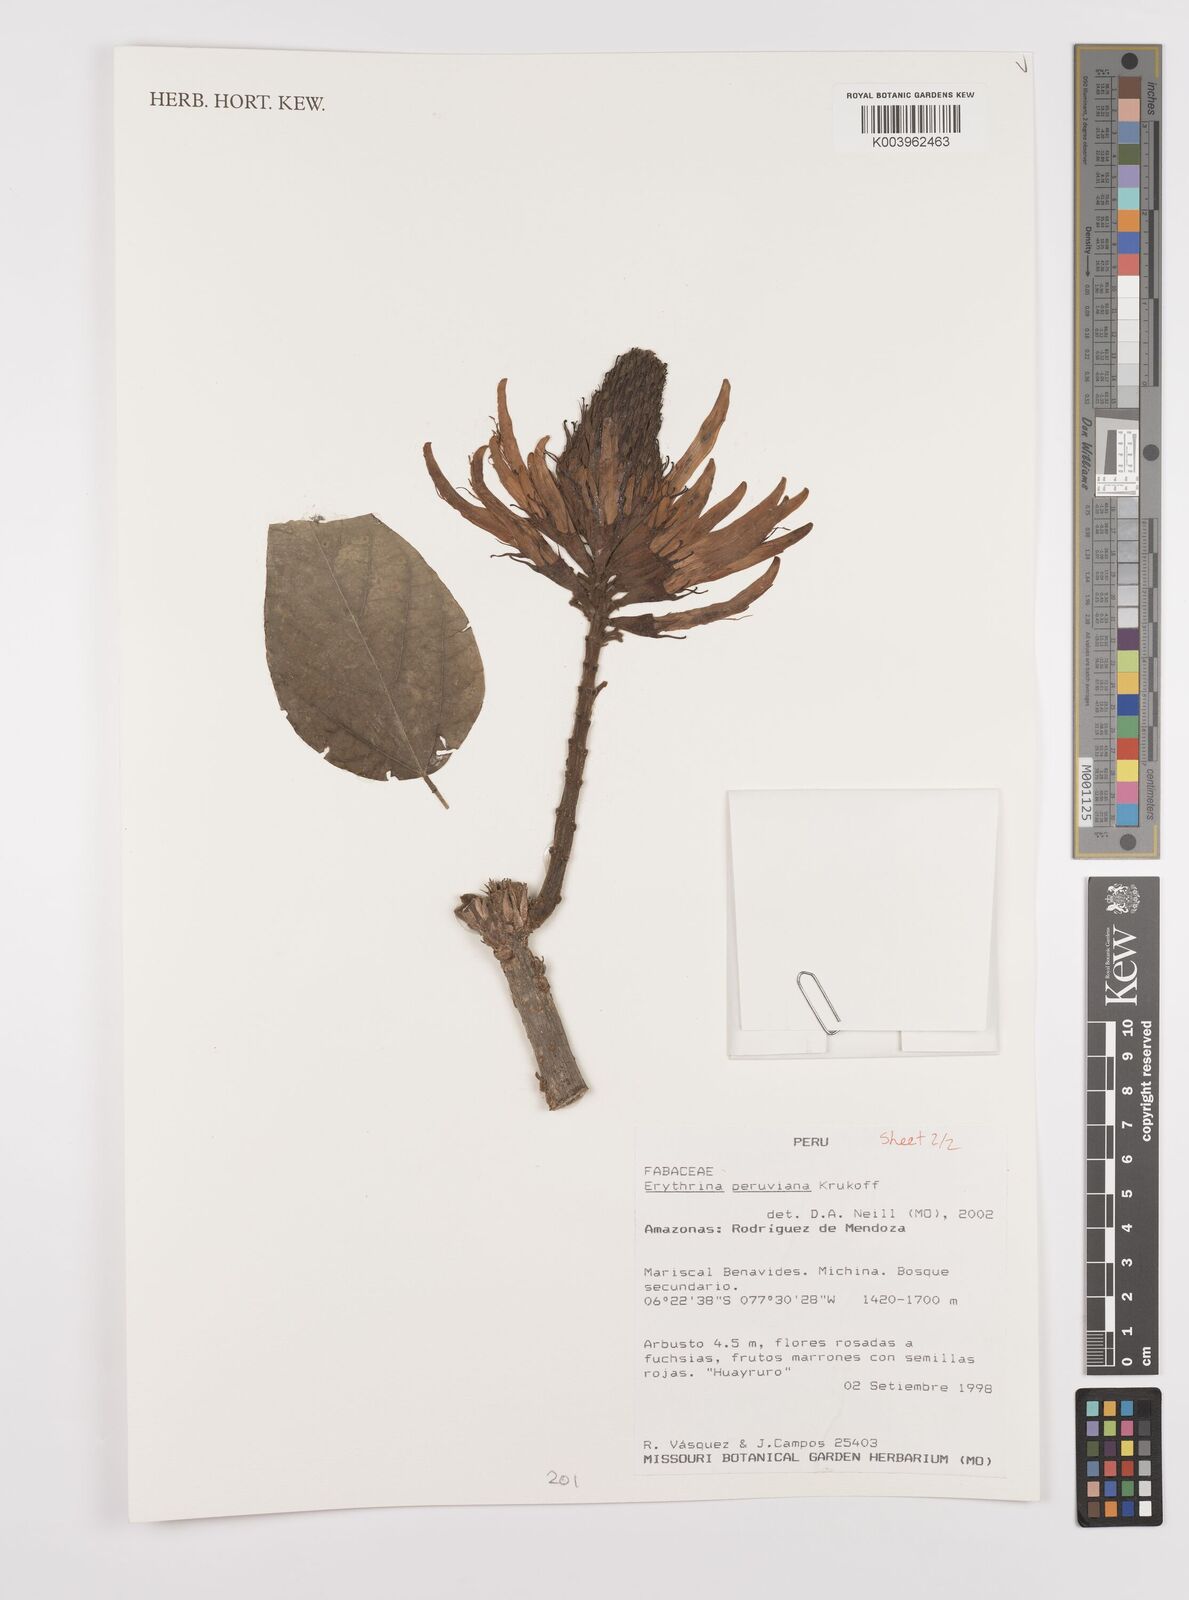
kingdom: Plantae
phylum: Tracheophyta
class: Magnoliopsida
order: Fabales
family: Fabaceae
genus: Erythrina
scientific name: Erythrina peruviana
